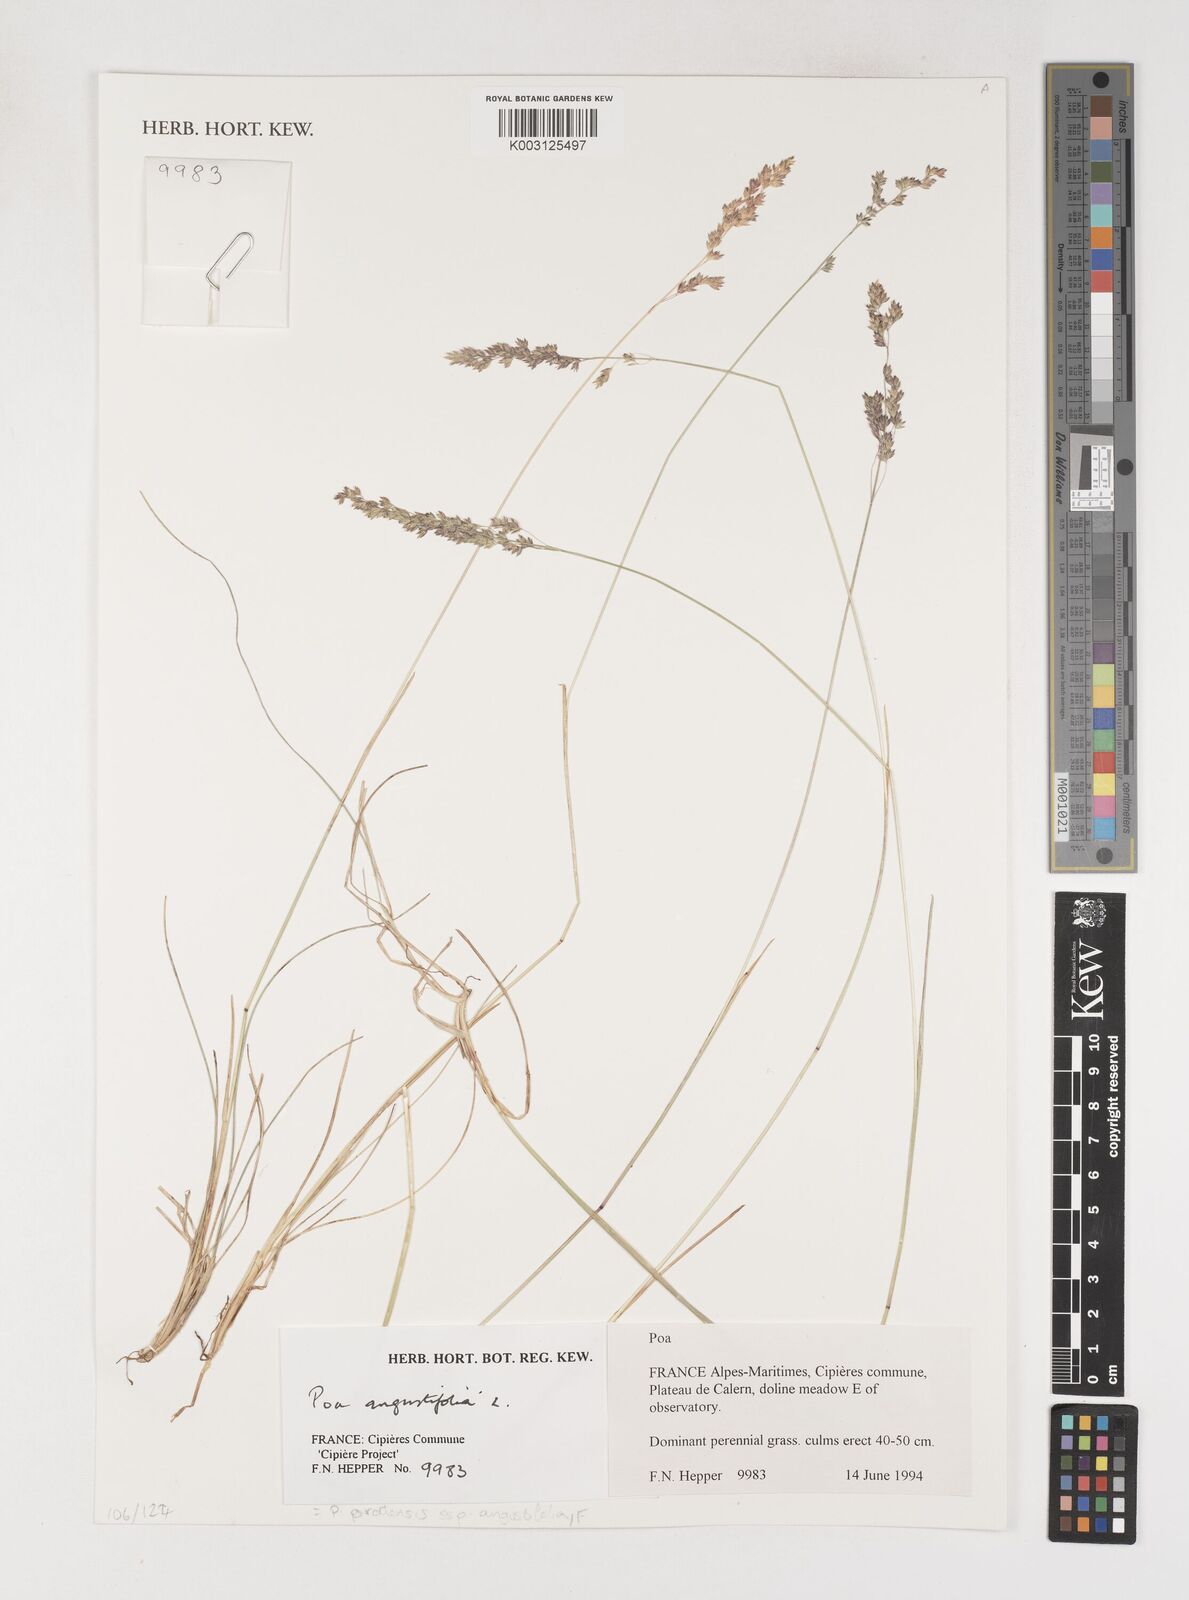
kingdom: Plantae
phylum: Tracheophyta
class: Liliopsida
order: Poales
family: Poaceae
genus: Poa
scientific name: Poa angustifolia
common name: Narrow-leaved meadow-grass
